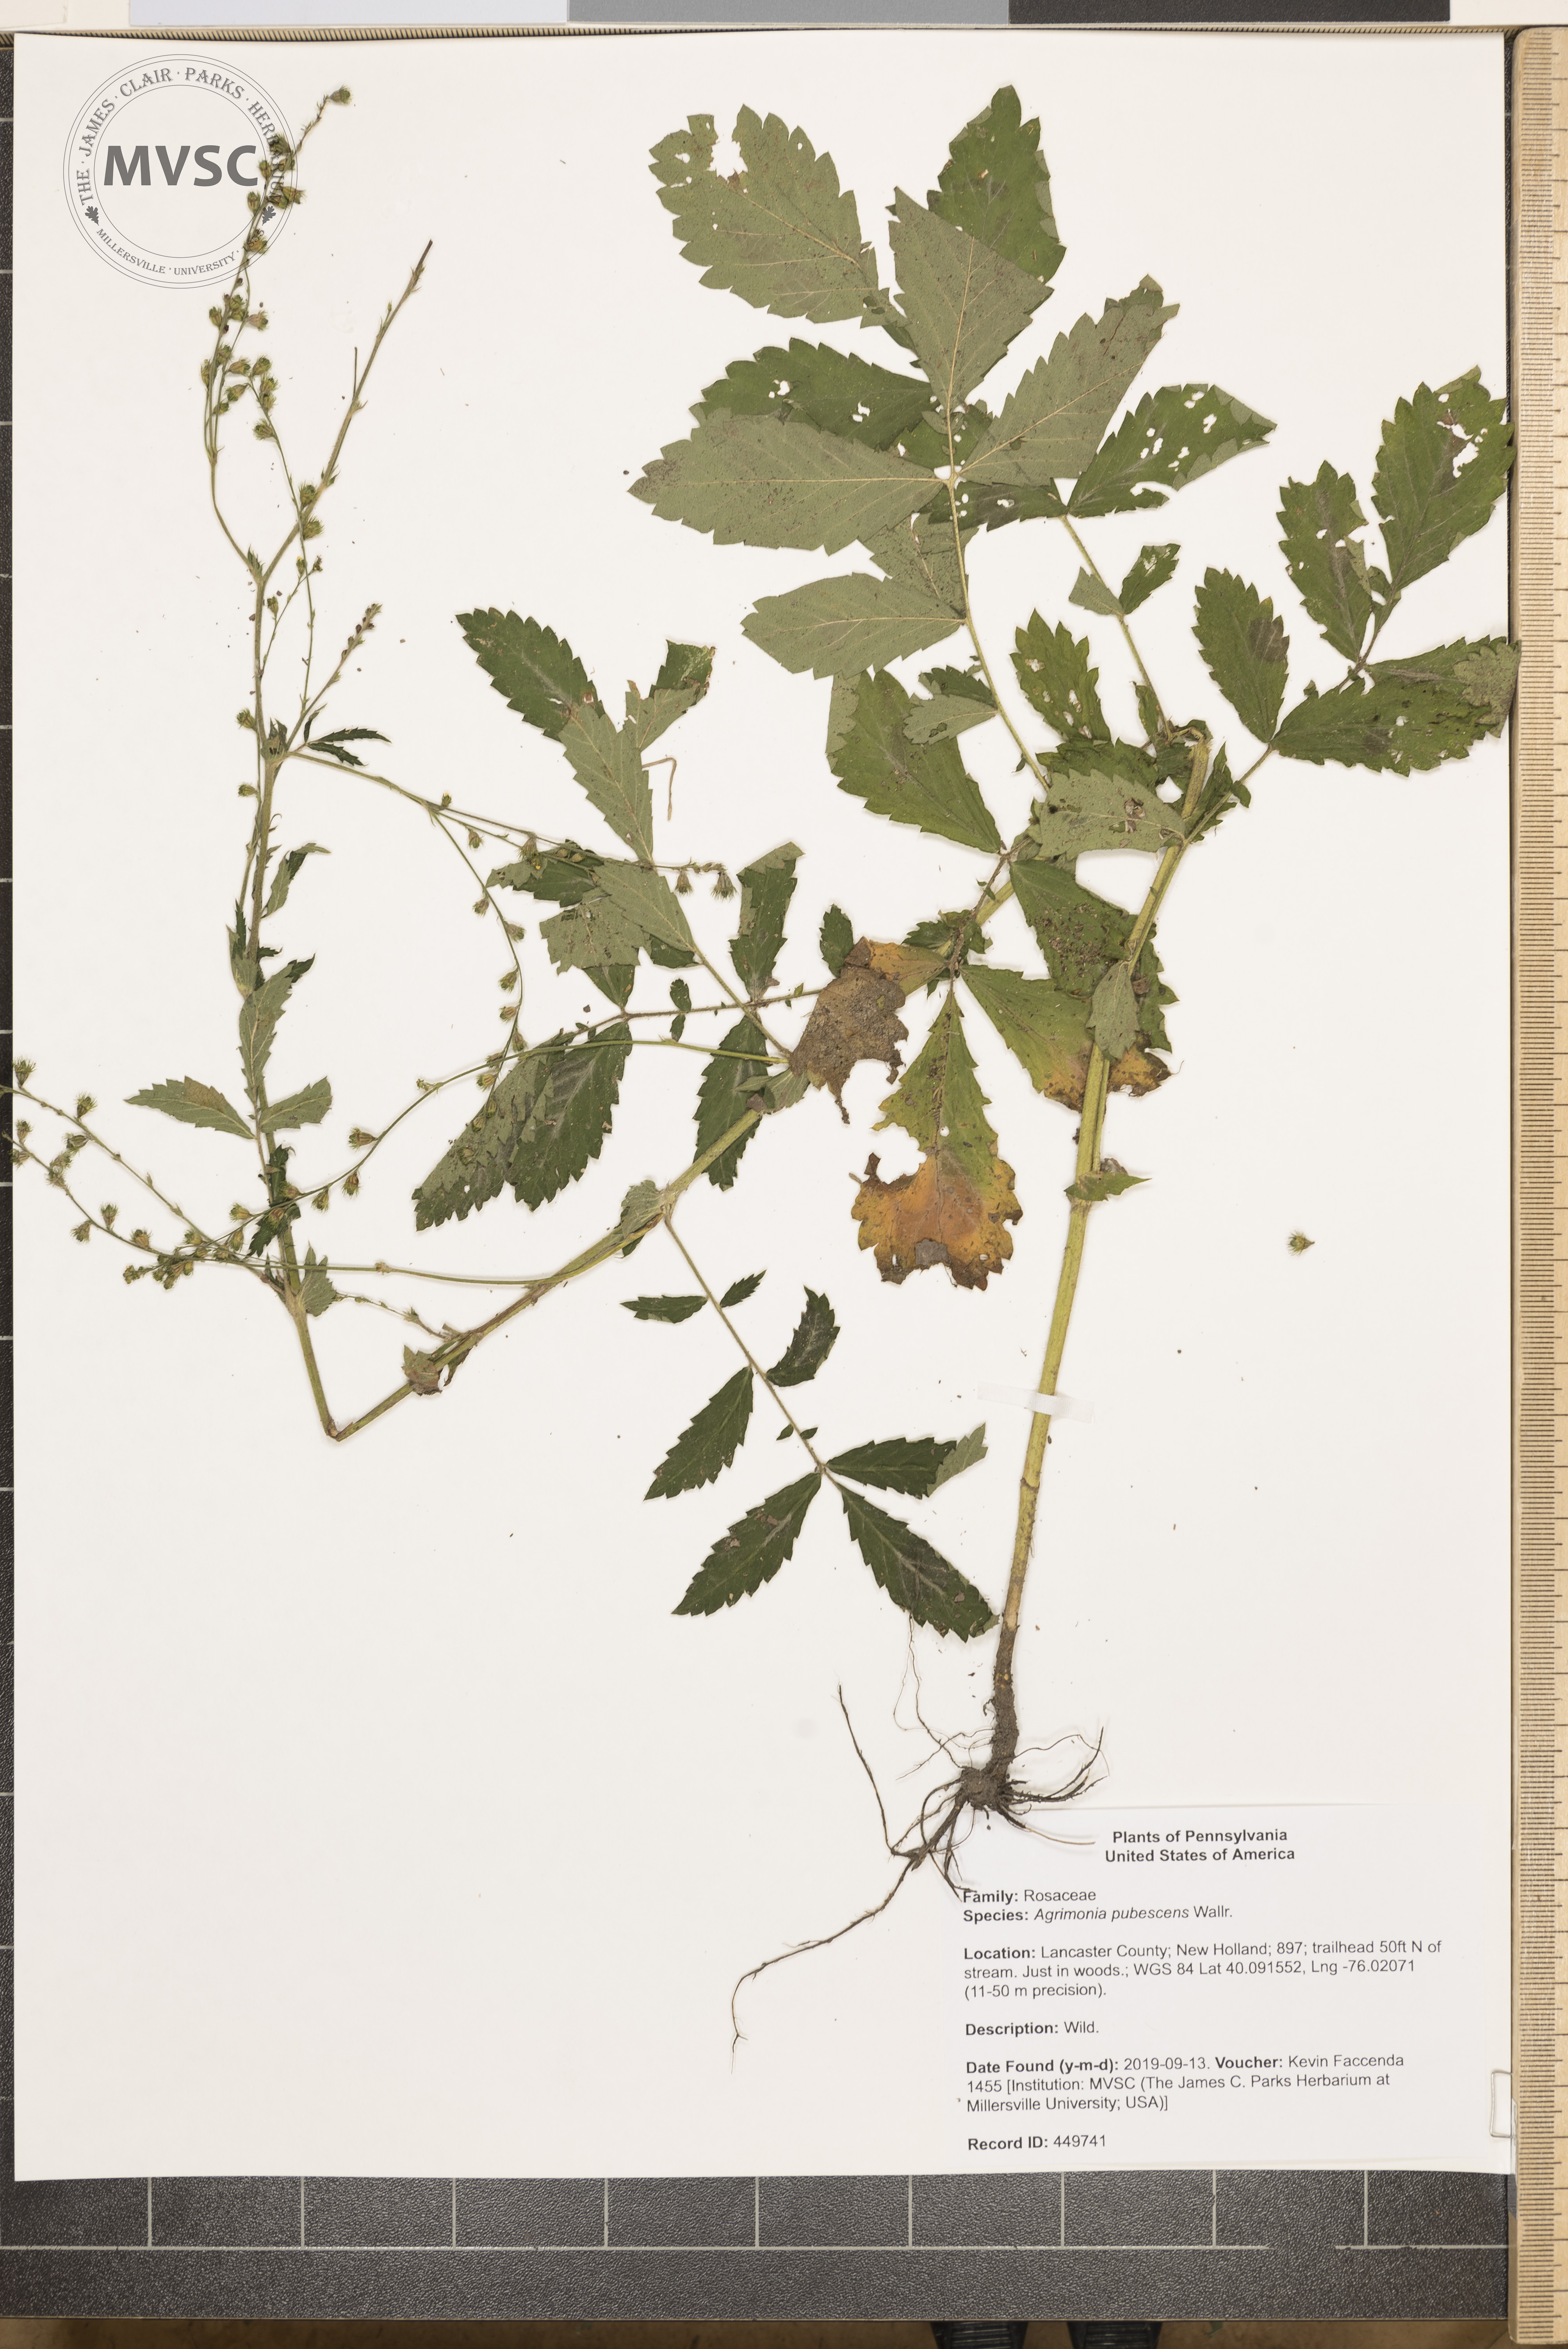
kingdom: Plantae
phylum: Tracheophyta
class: Magnoliopsida
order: Rosales
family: Rosaceae
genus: Agrimonia
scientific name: Agrimonia pubescens
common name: soft agrimony
